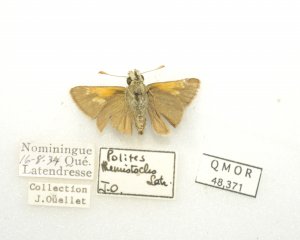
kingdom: Animalia
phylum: Arthropoda
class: Insecta
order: Lepidoptera
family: Hesperiidae
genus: Polites
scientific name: Polites themistocles
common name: Tawny-edged Skipper
